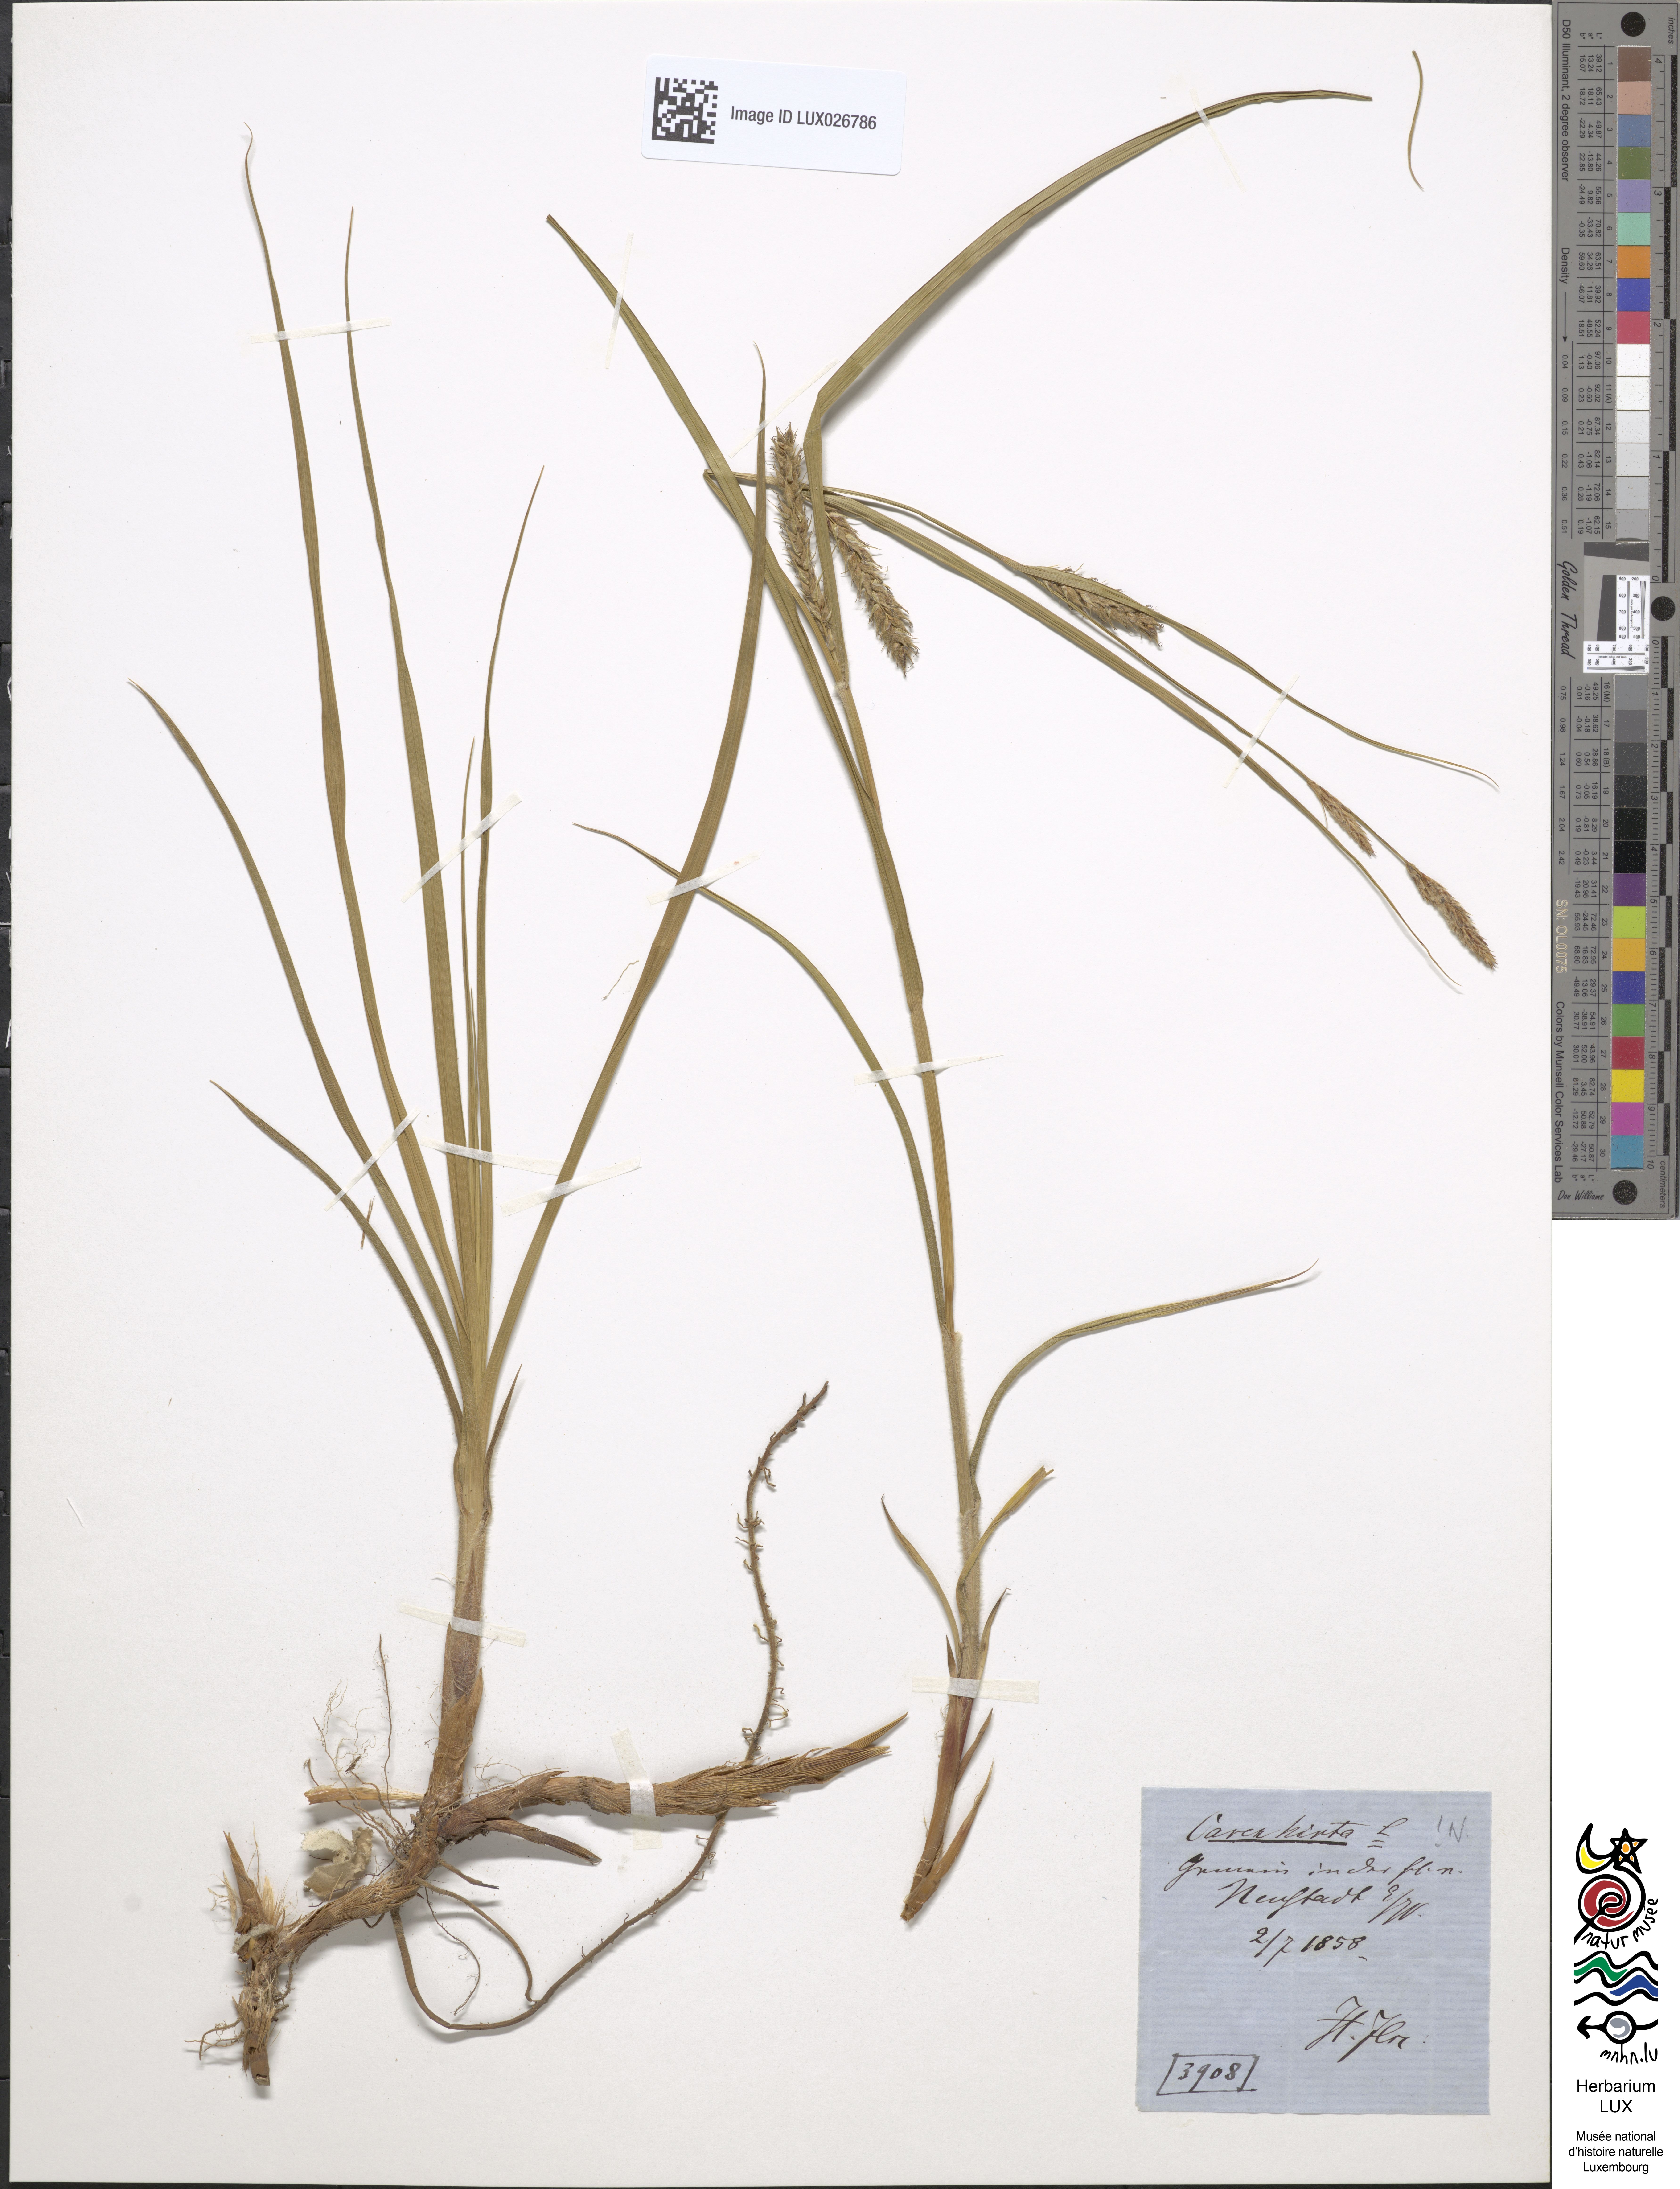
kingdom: Plantae
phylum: Tracheophyta
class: Liliopsida
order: Poales
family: Cyperaceae
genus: Carex
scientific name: Carex hirta
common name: Hairy sedge
